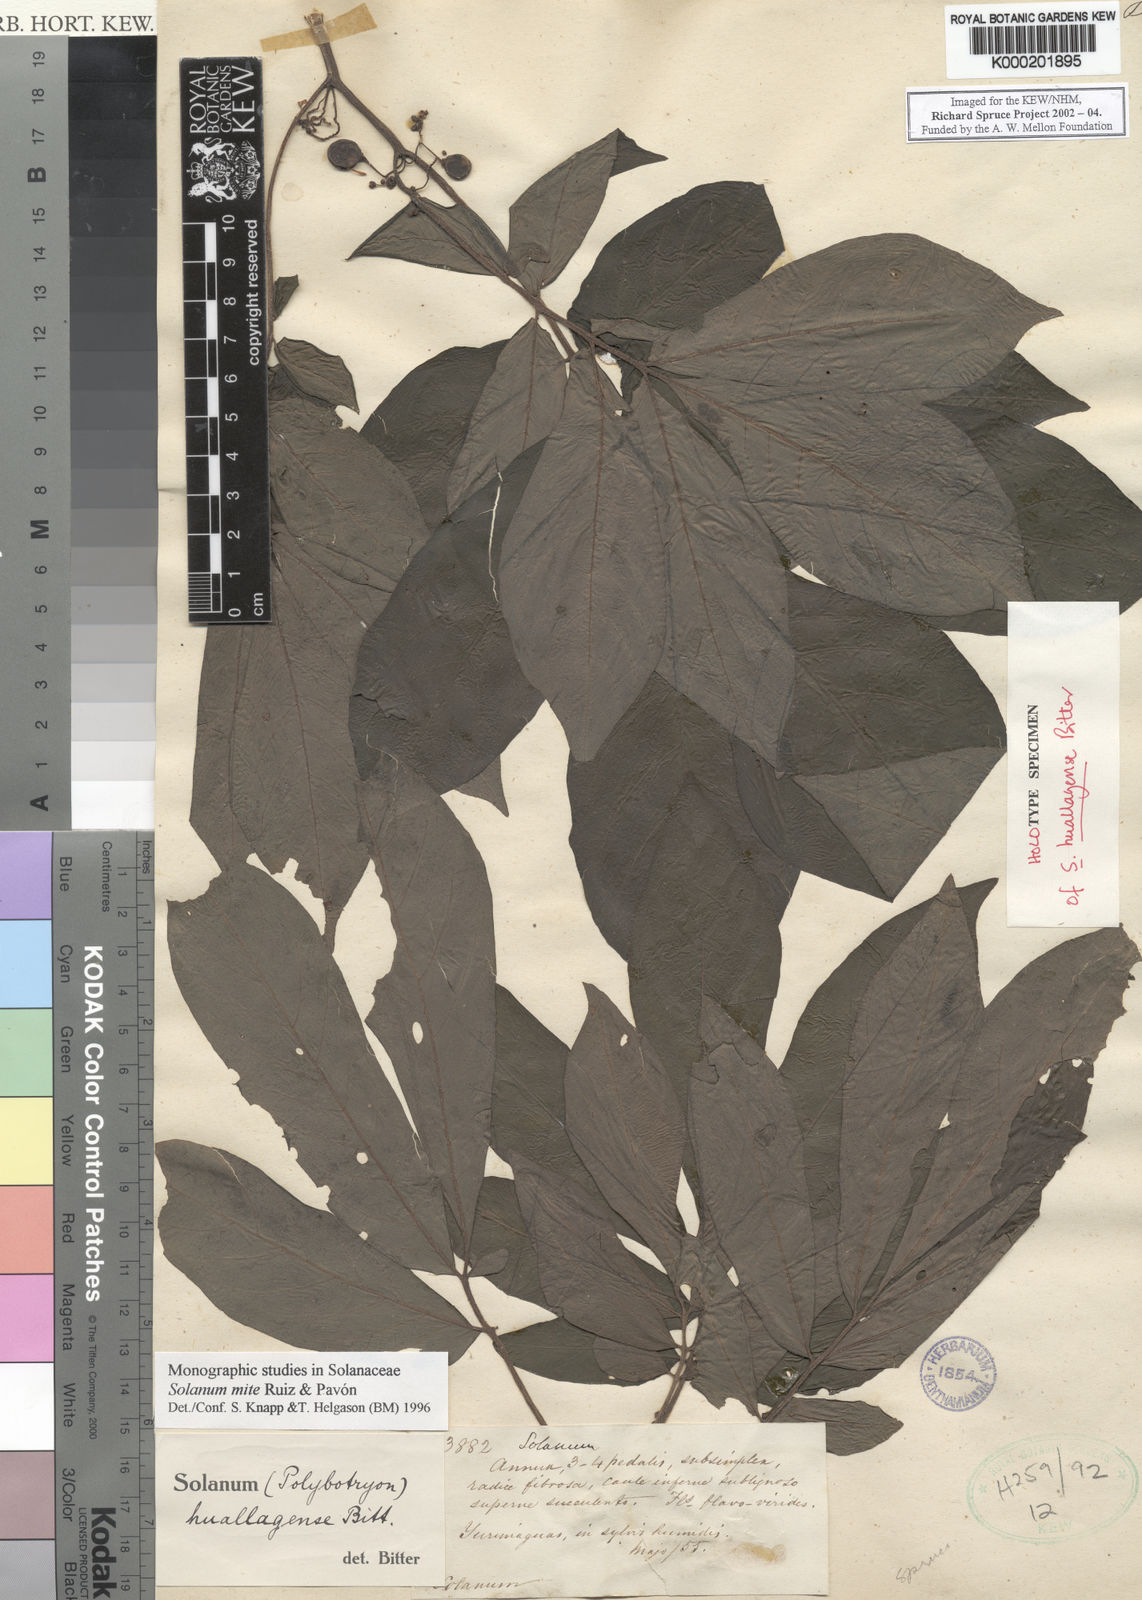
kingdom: Plantae
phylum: Tracheophyta
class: Magnoliopsida
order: Solanales
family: Solanaceae
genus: Solanum
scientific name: Solanum mite
